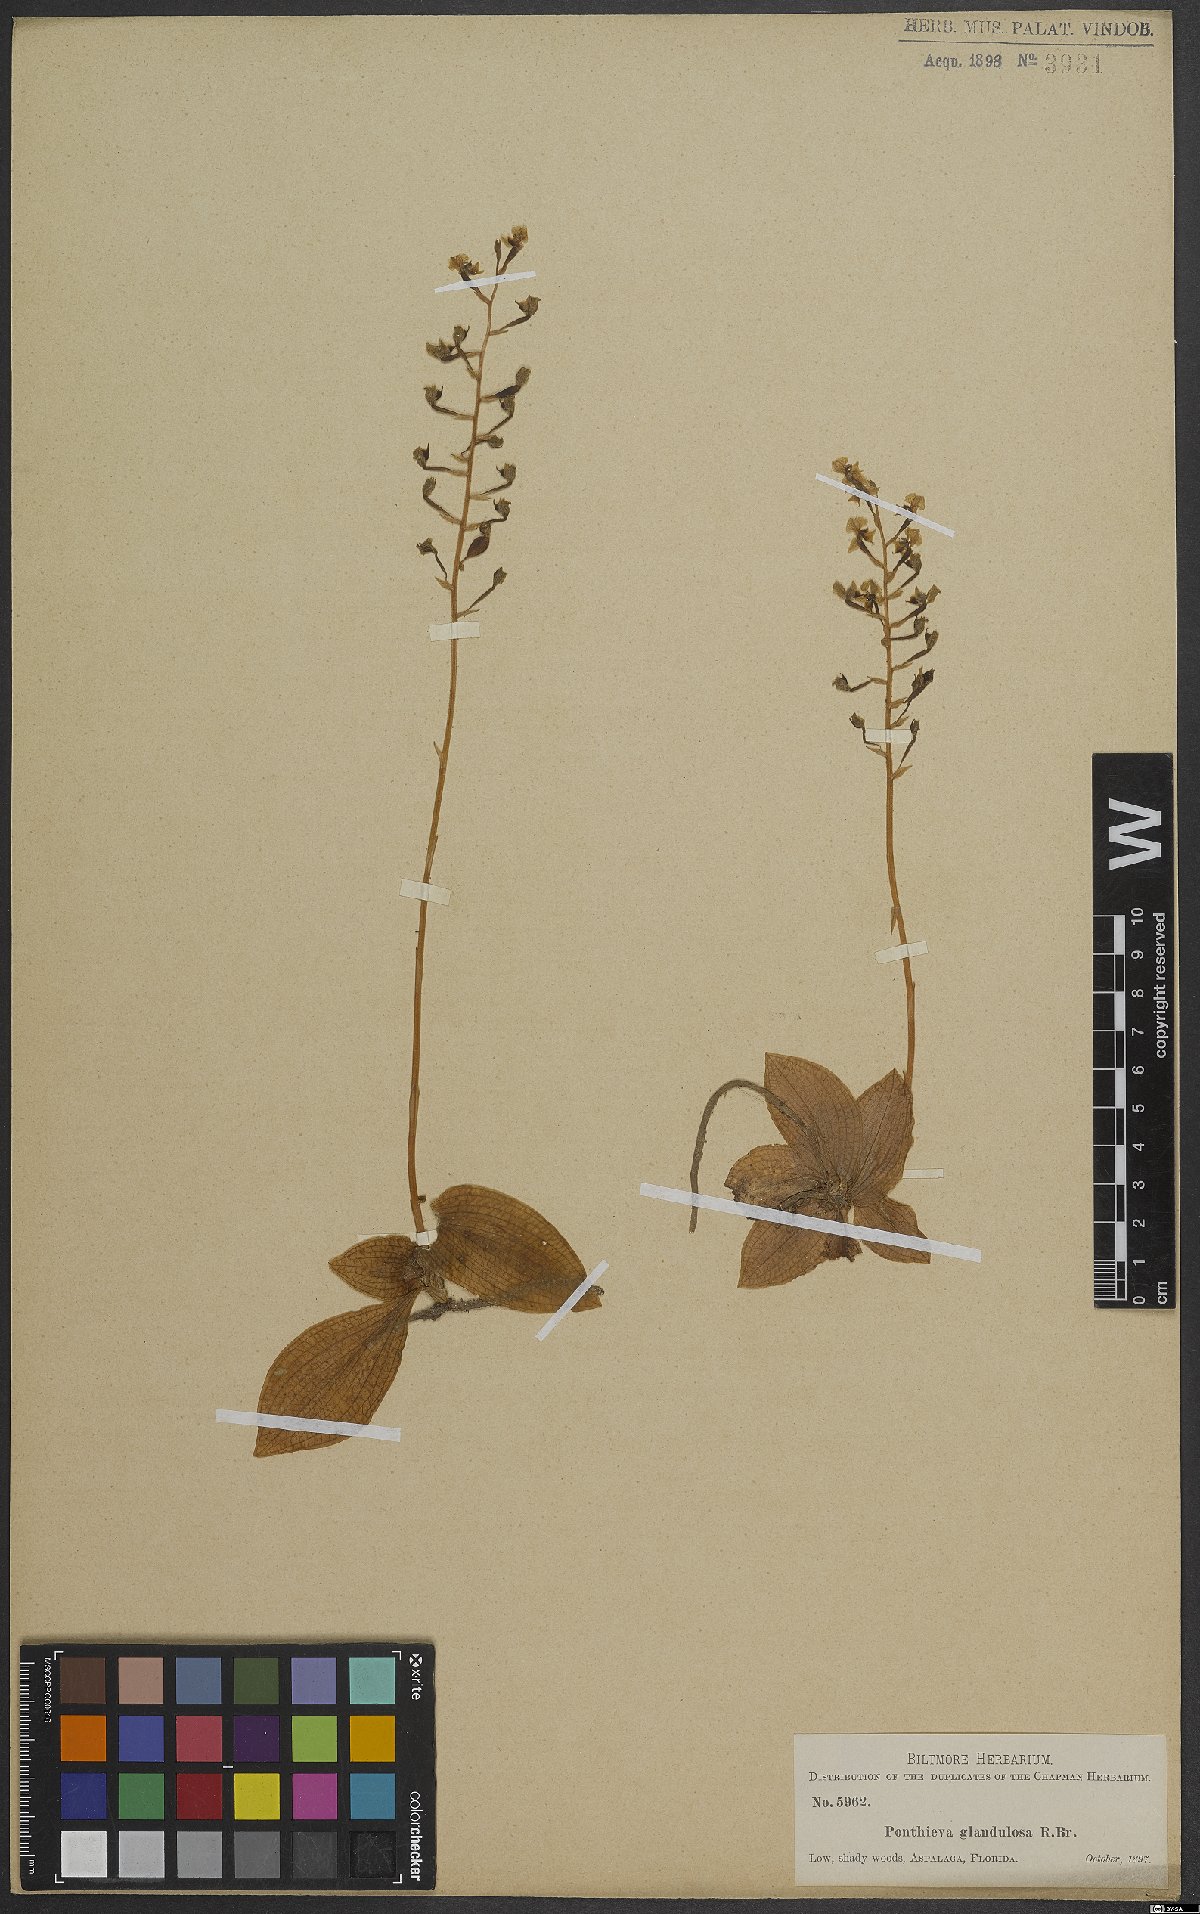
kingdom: Plantae
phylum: Tracheophyta
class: Liliopsida
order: Asparagales
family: Orchidaceae
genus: Ponthieva
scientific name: Ponthieva glandulosa
